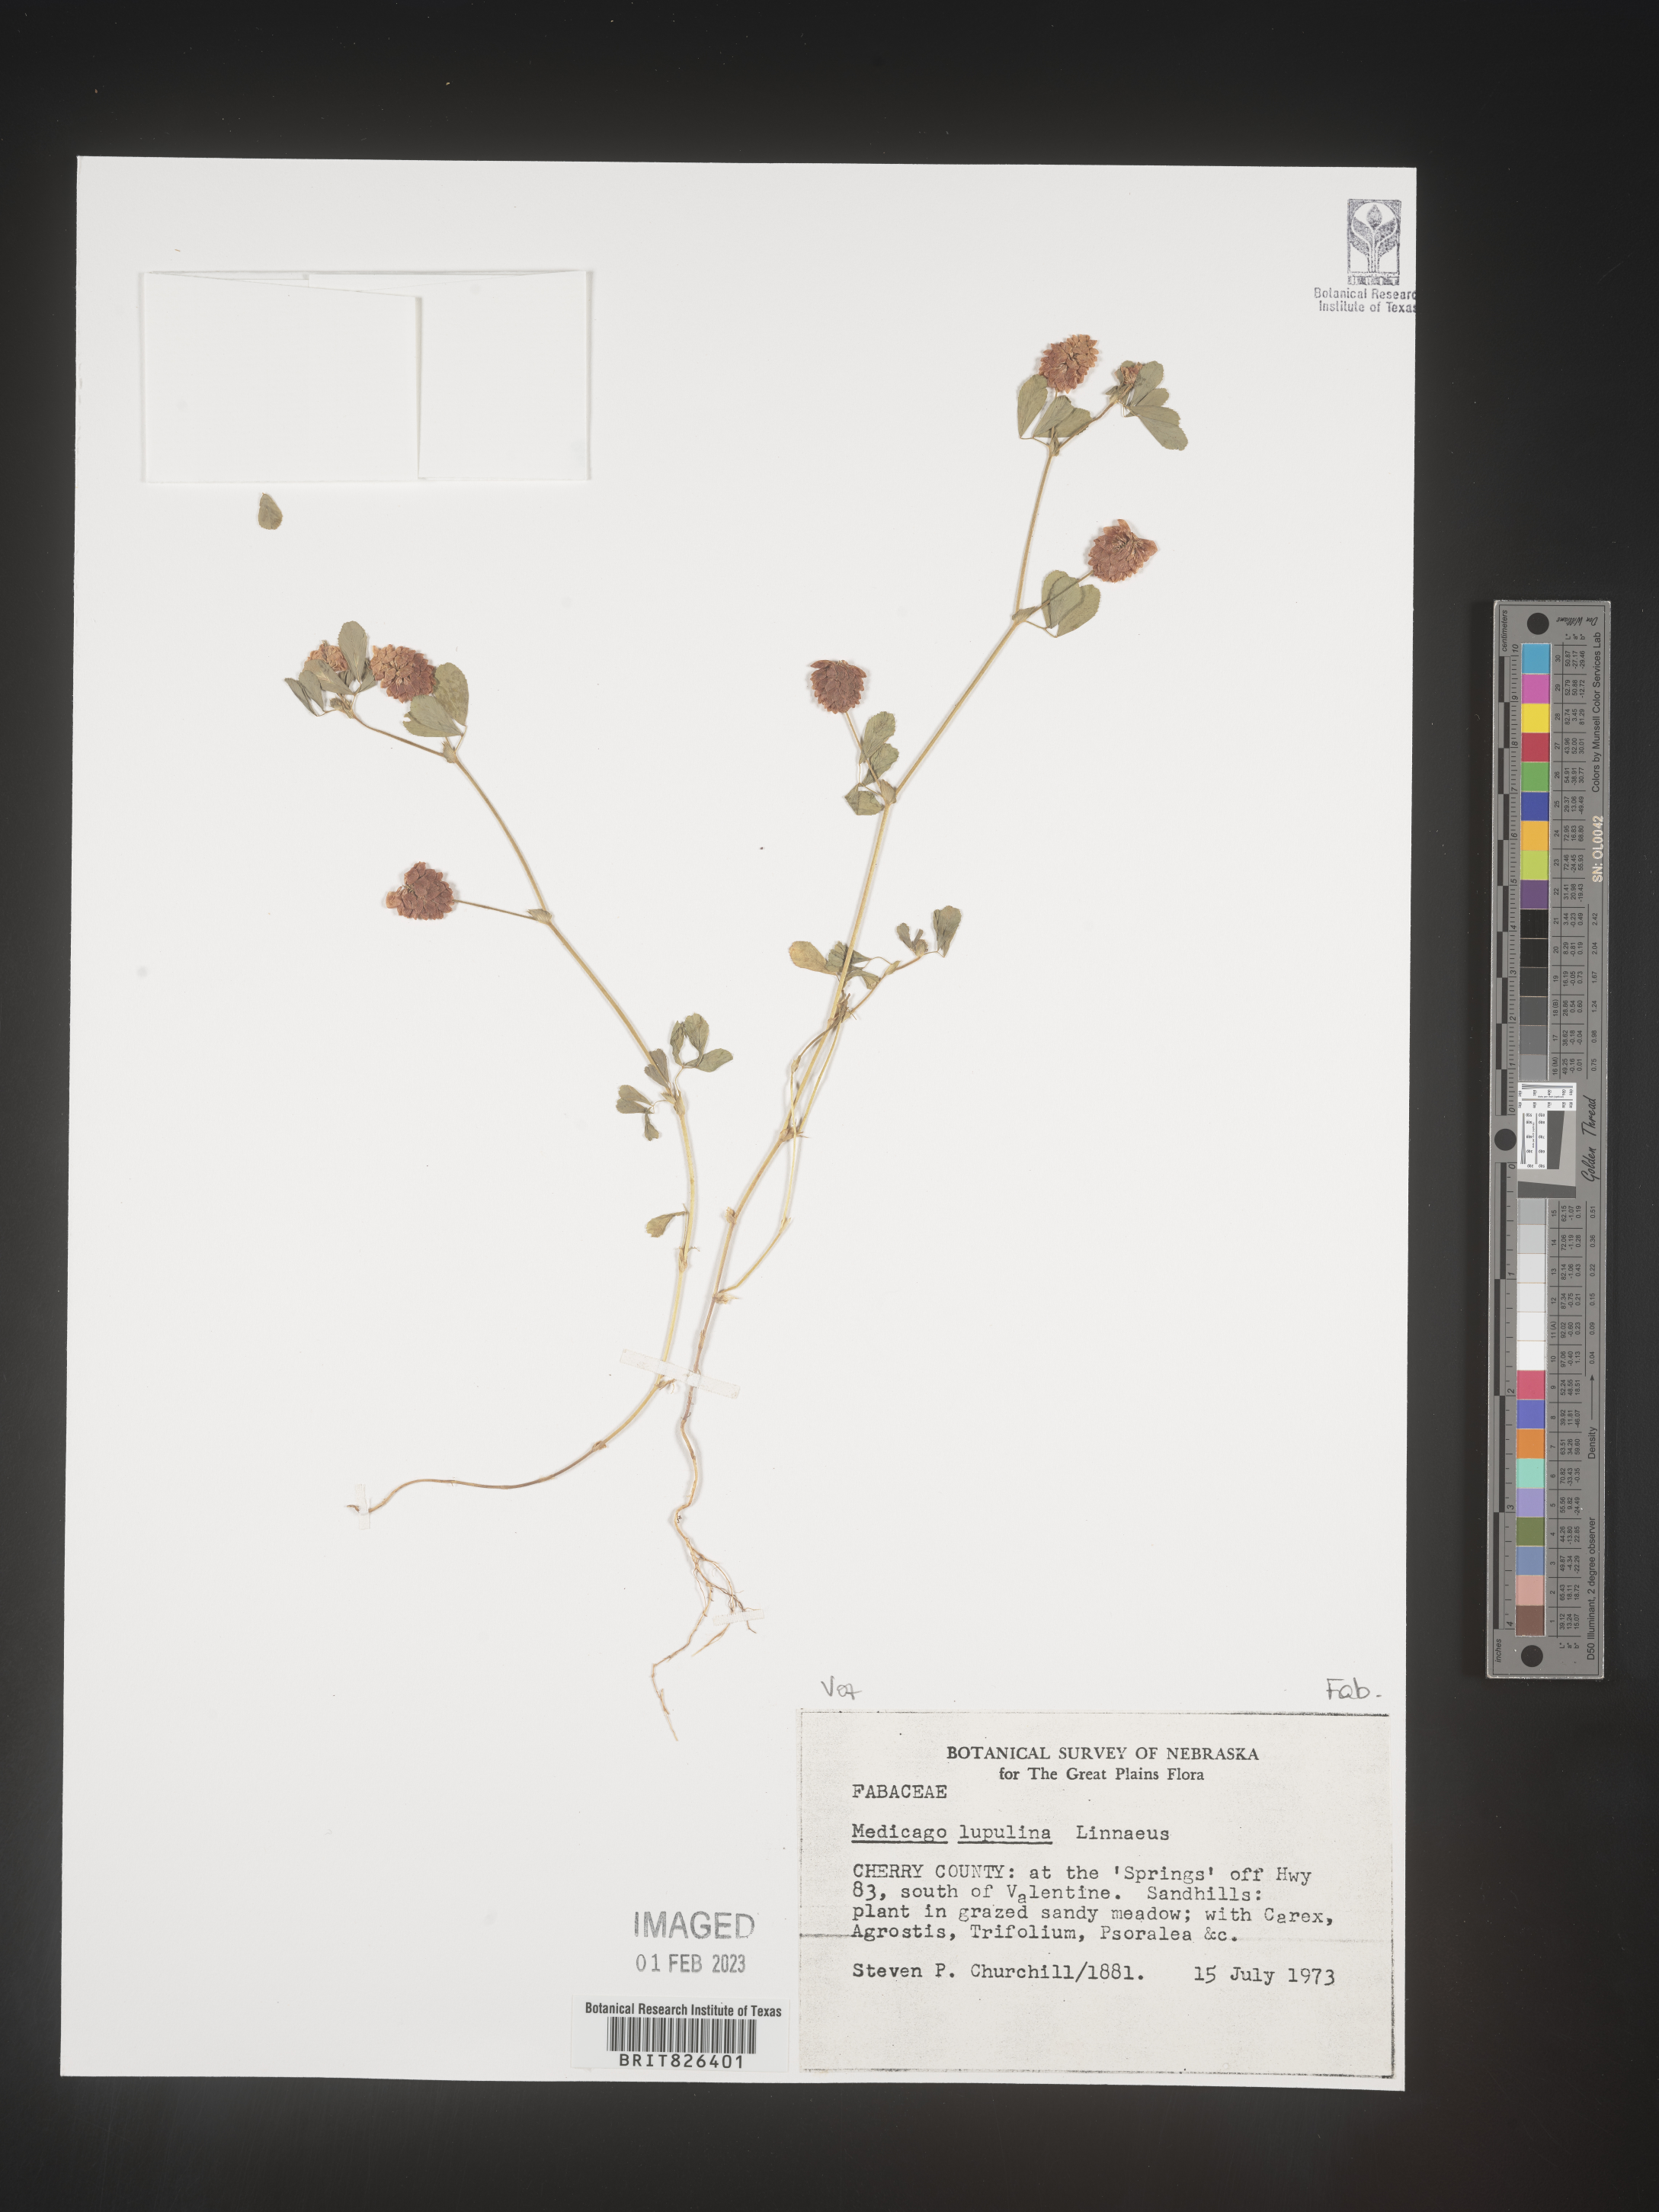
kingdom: Plantae
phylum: Tracheophyta
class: Magnoliopsida
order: Fabales
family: Fabaceae
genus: Medicago
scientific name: Medicago lupulina
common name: Black medick
